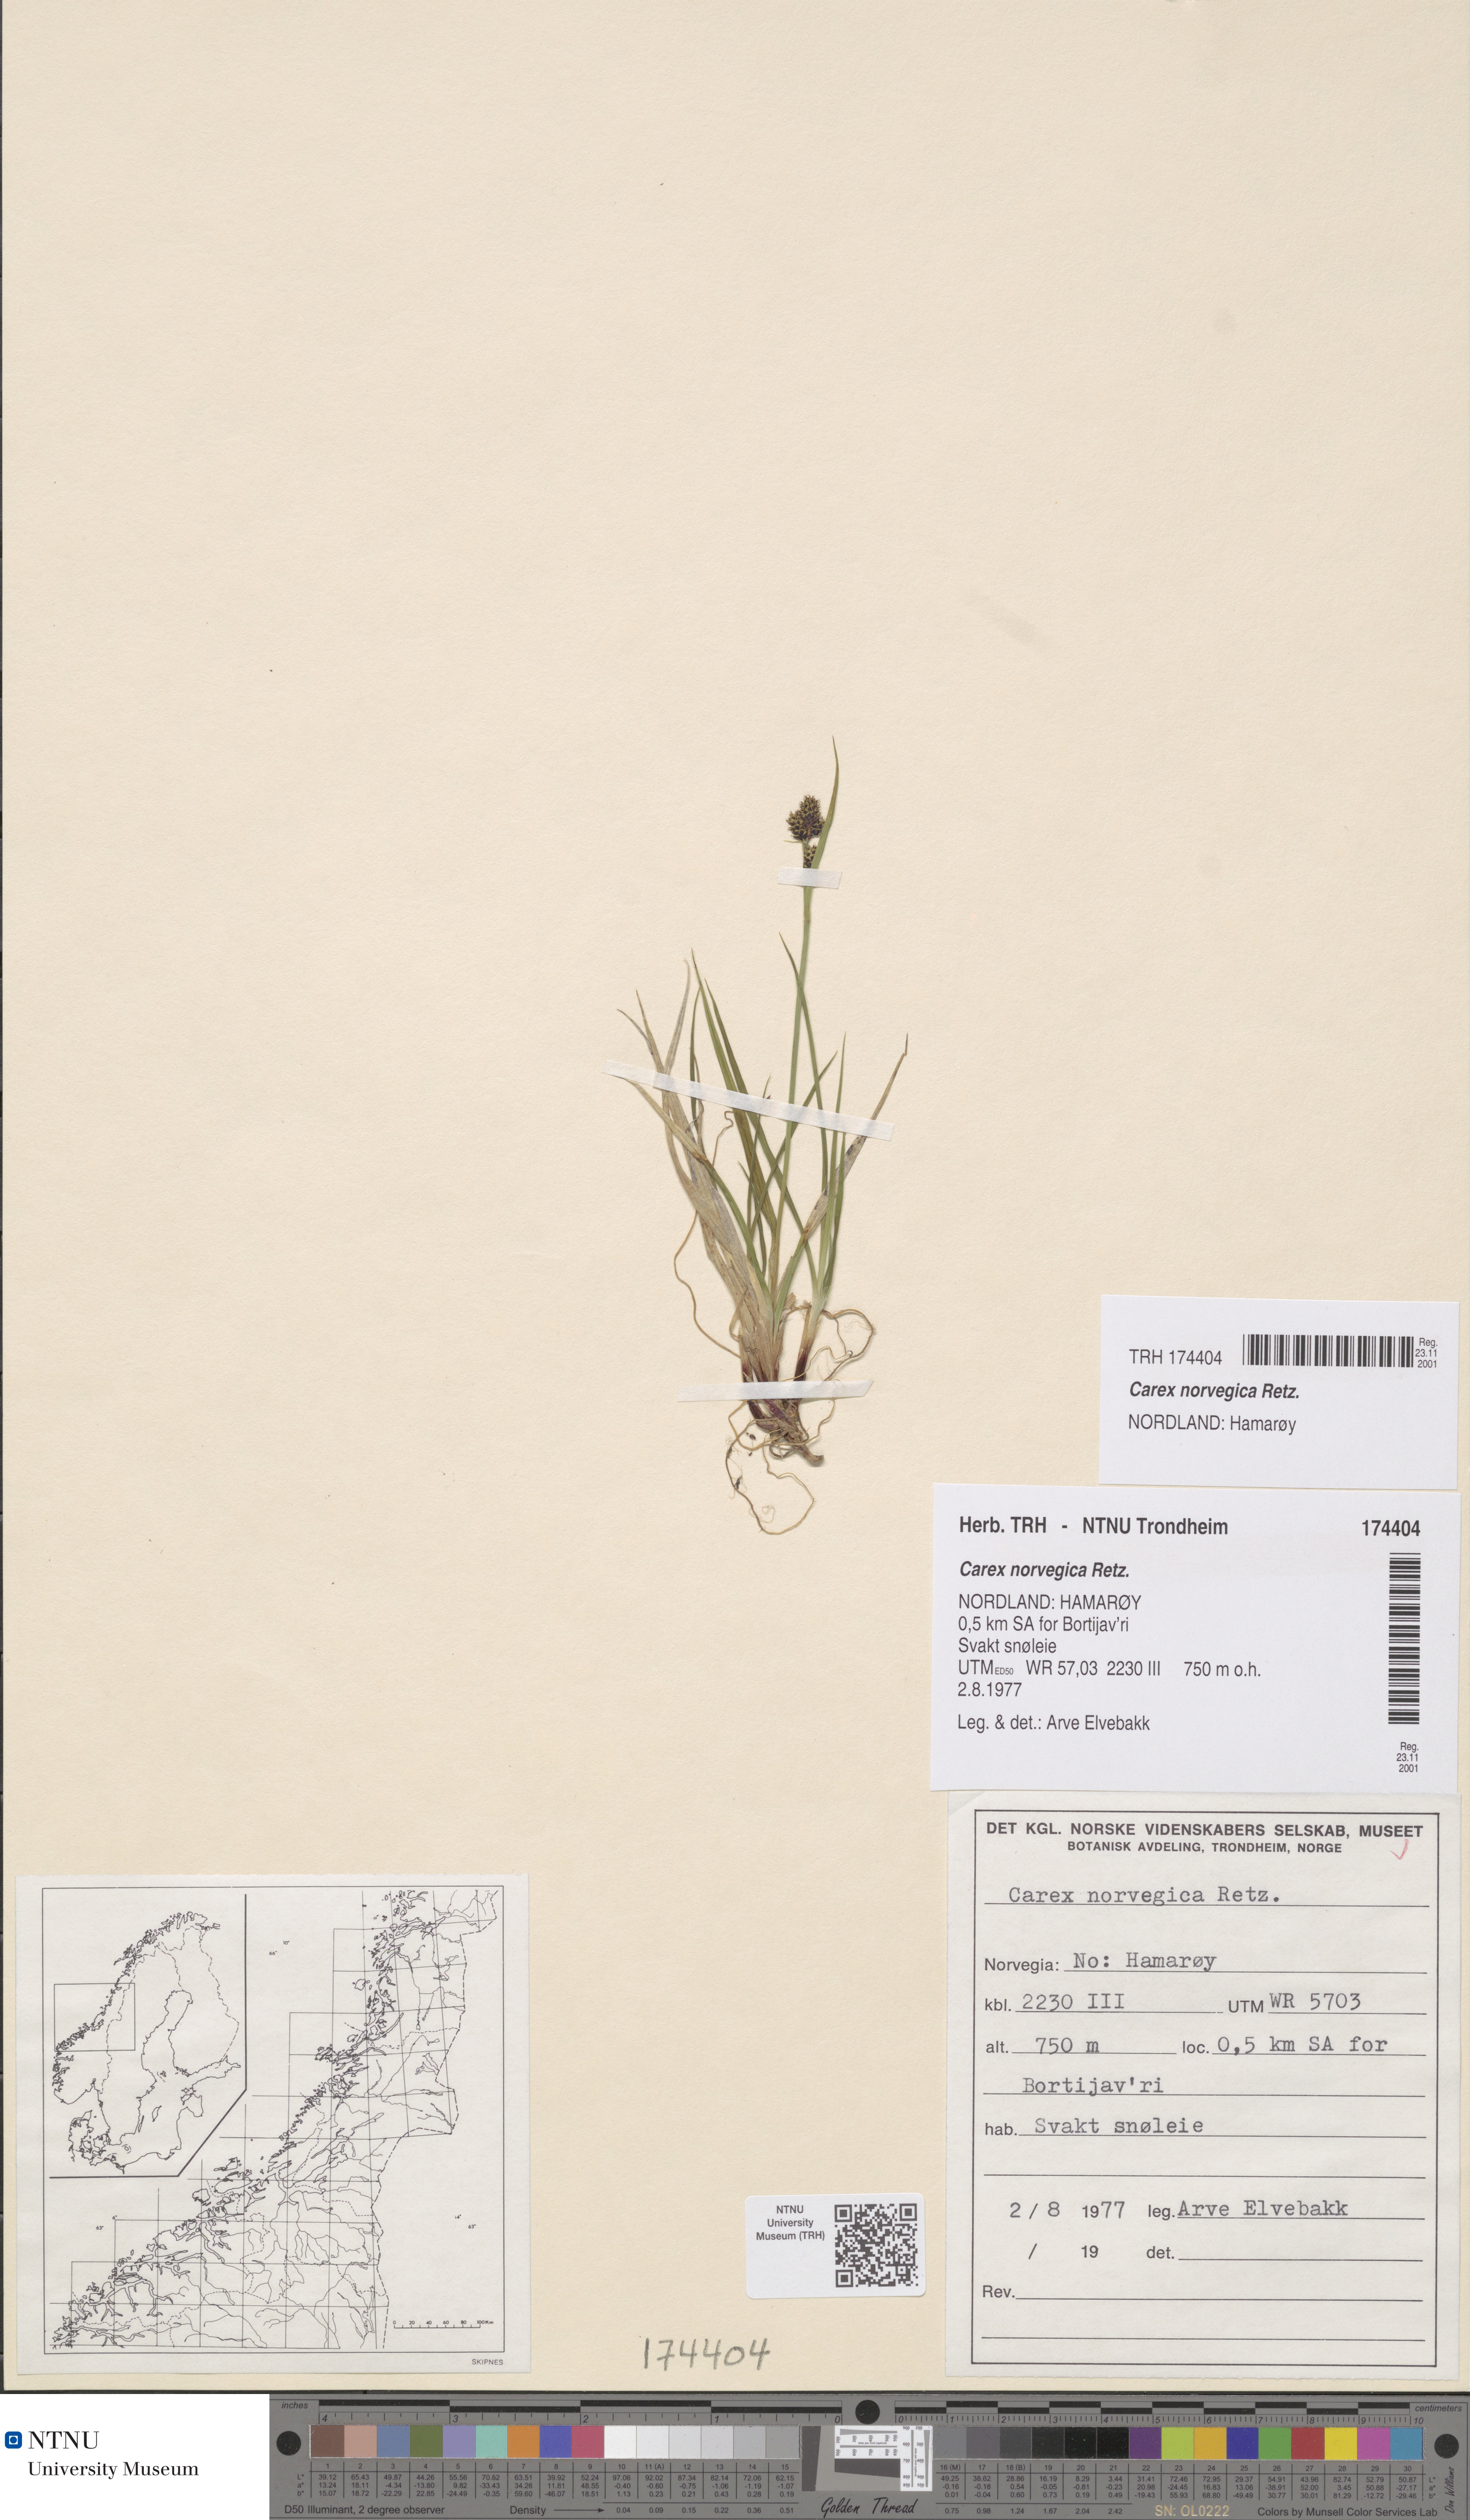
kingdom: Plantae
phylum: Tracheophyta
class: Liliopsida
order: Poales
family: Cyperaceae
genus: Carex
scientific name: Carex norvegica
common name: Close-headed alpine-sedge
